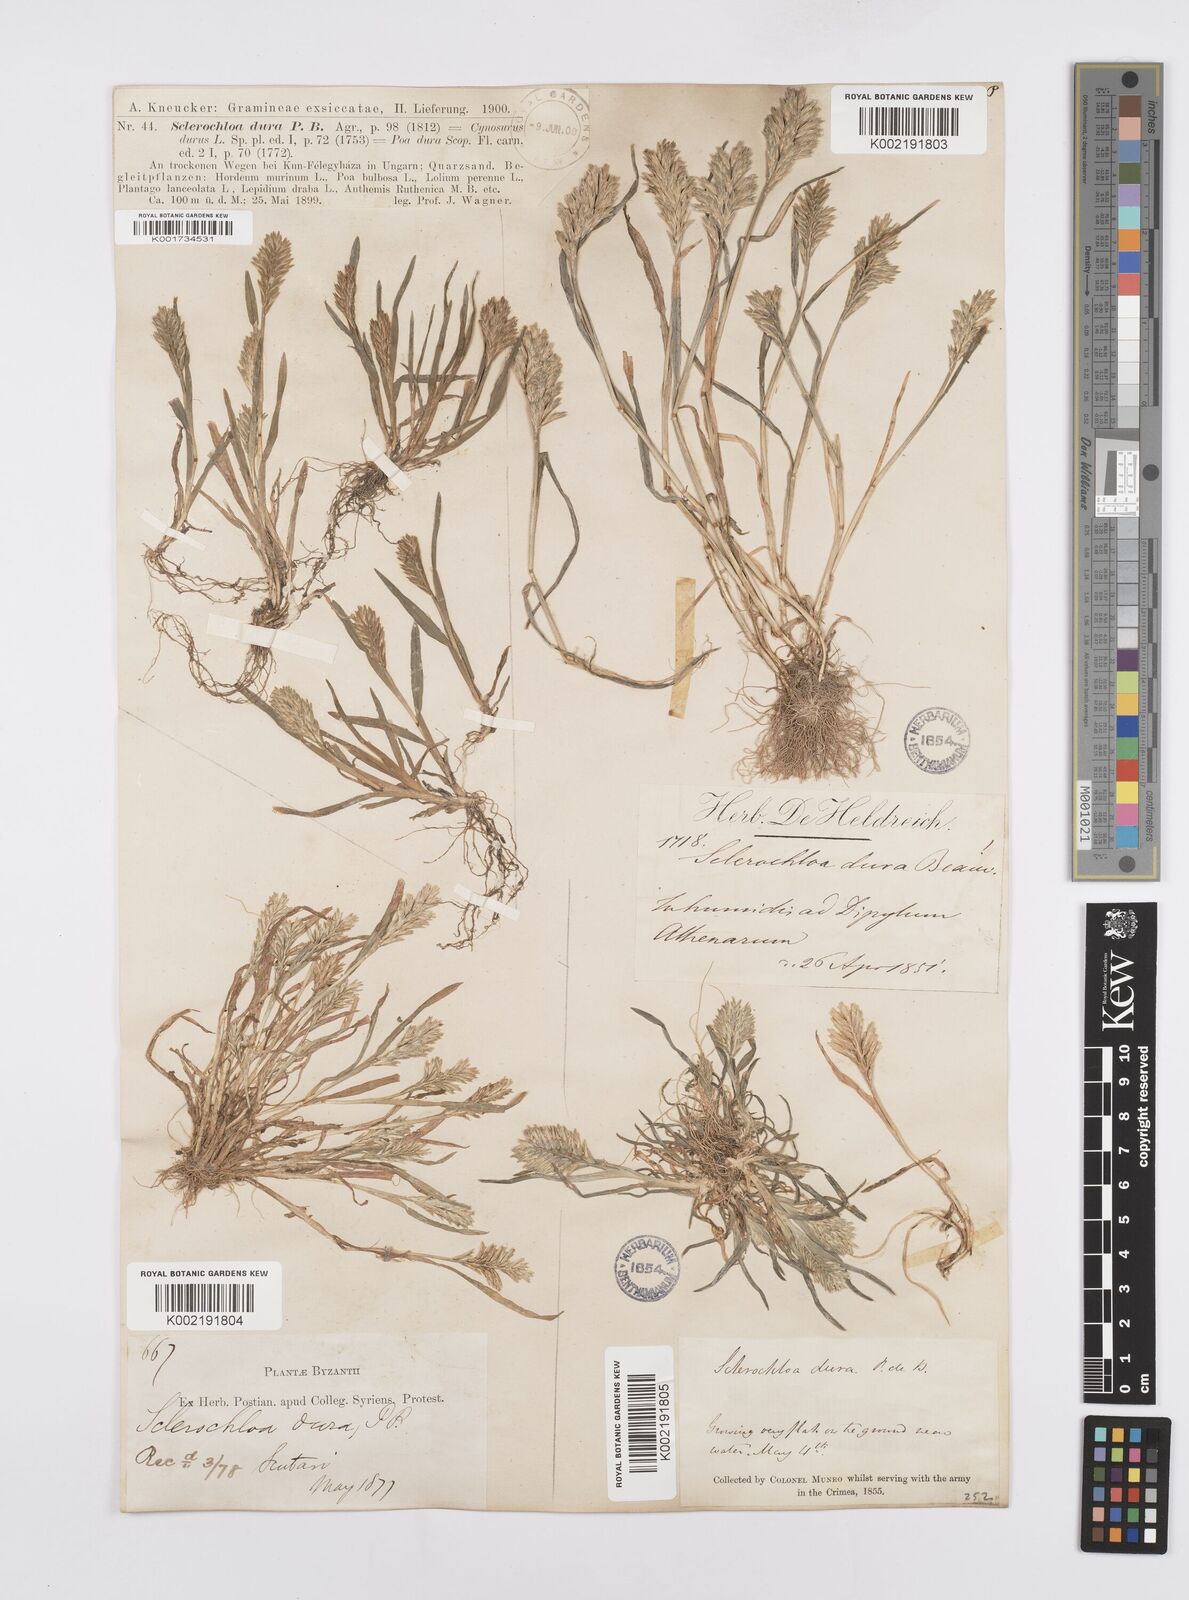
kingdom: Plantae
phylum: Tracheophyta
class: Liliopsida
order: Poales
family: Poaceae
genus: Sclerochloa
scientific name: Sclerochloa dura
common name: Common hardgrass
